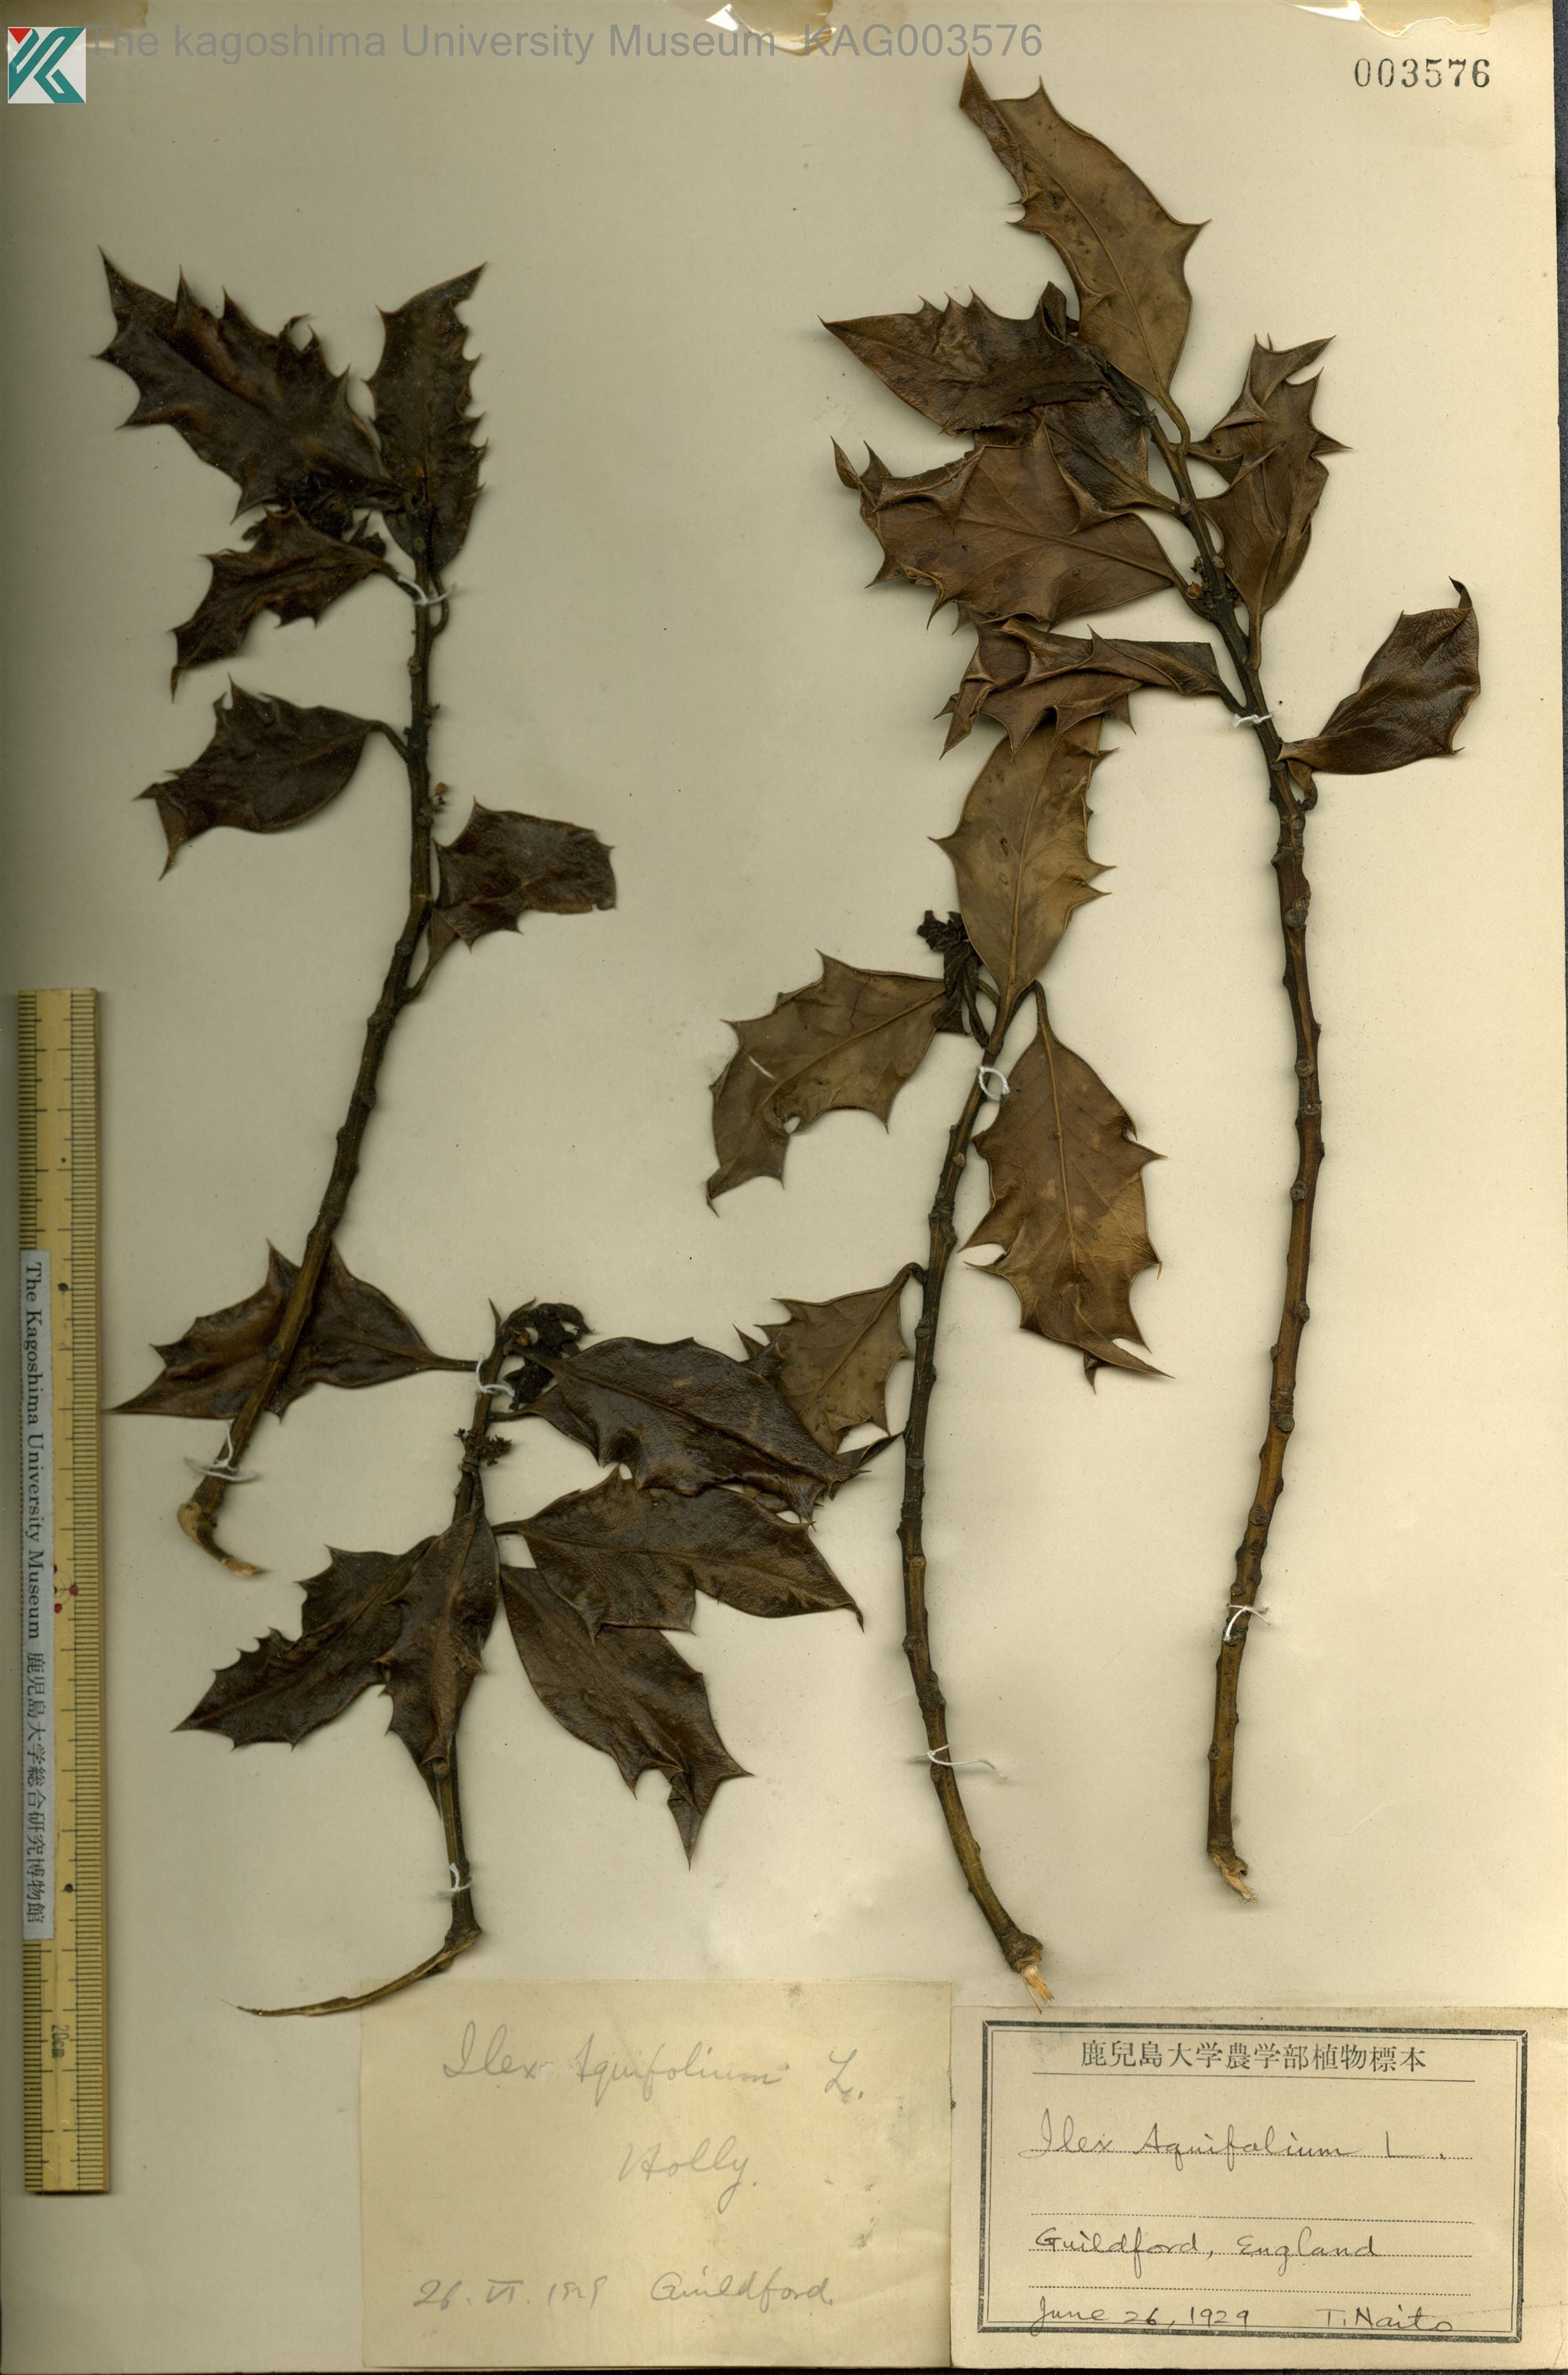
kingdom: Plantae
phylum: Tracheophyta
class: Magnoliopsida
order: Aquifoliales
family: Aquifoliaceae
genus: Ilex
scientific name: Ilex aquifolium
